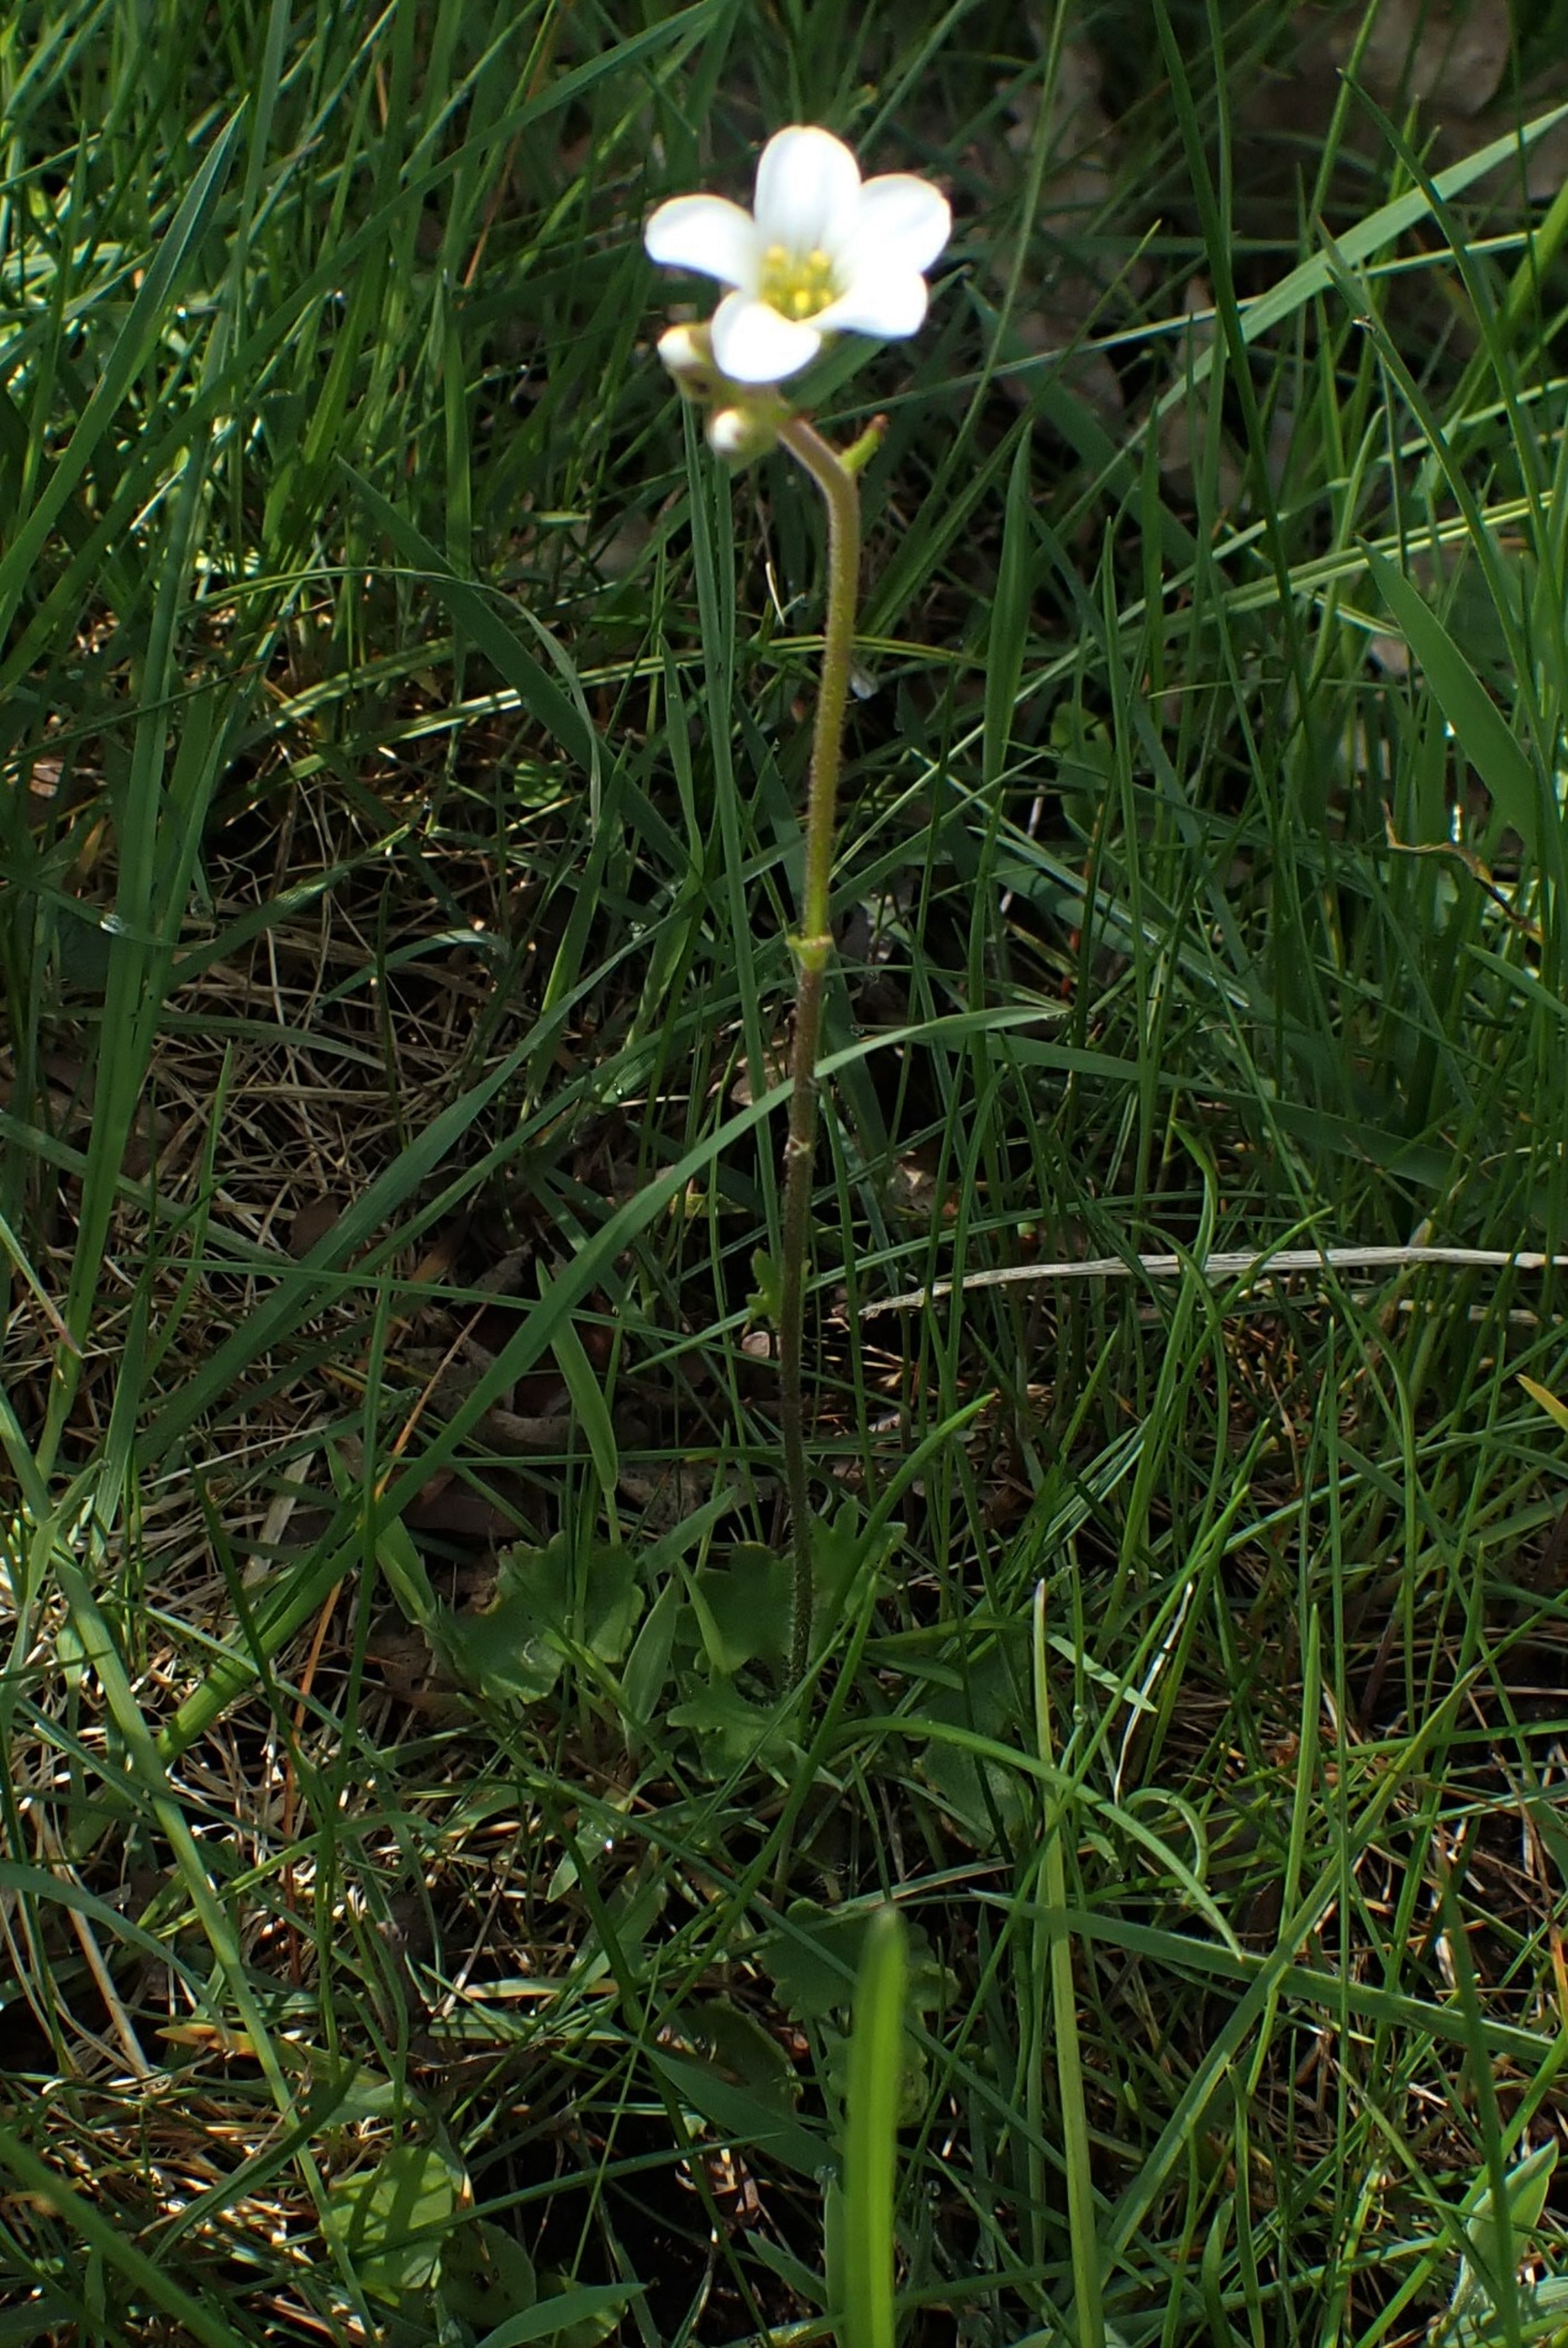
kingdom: Plantae
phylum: Tracheophyta
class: Magnoliopsida
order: Saxifragales
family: Saxifragaceae
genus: Saxifraga
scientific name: Saxifraga granulata
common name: Kornet stenbræk
